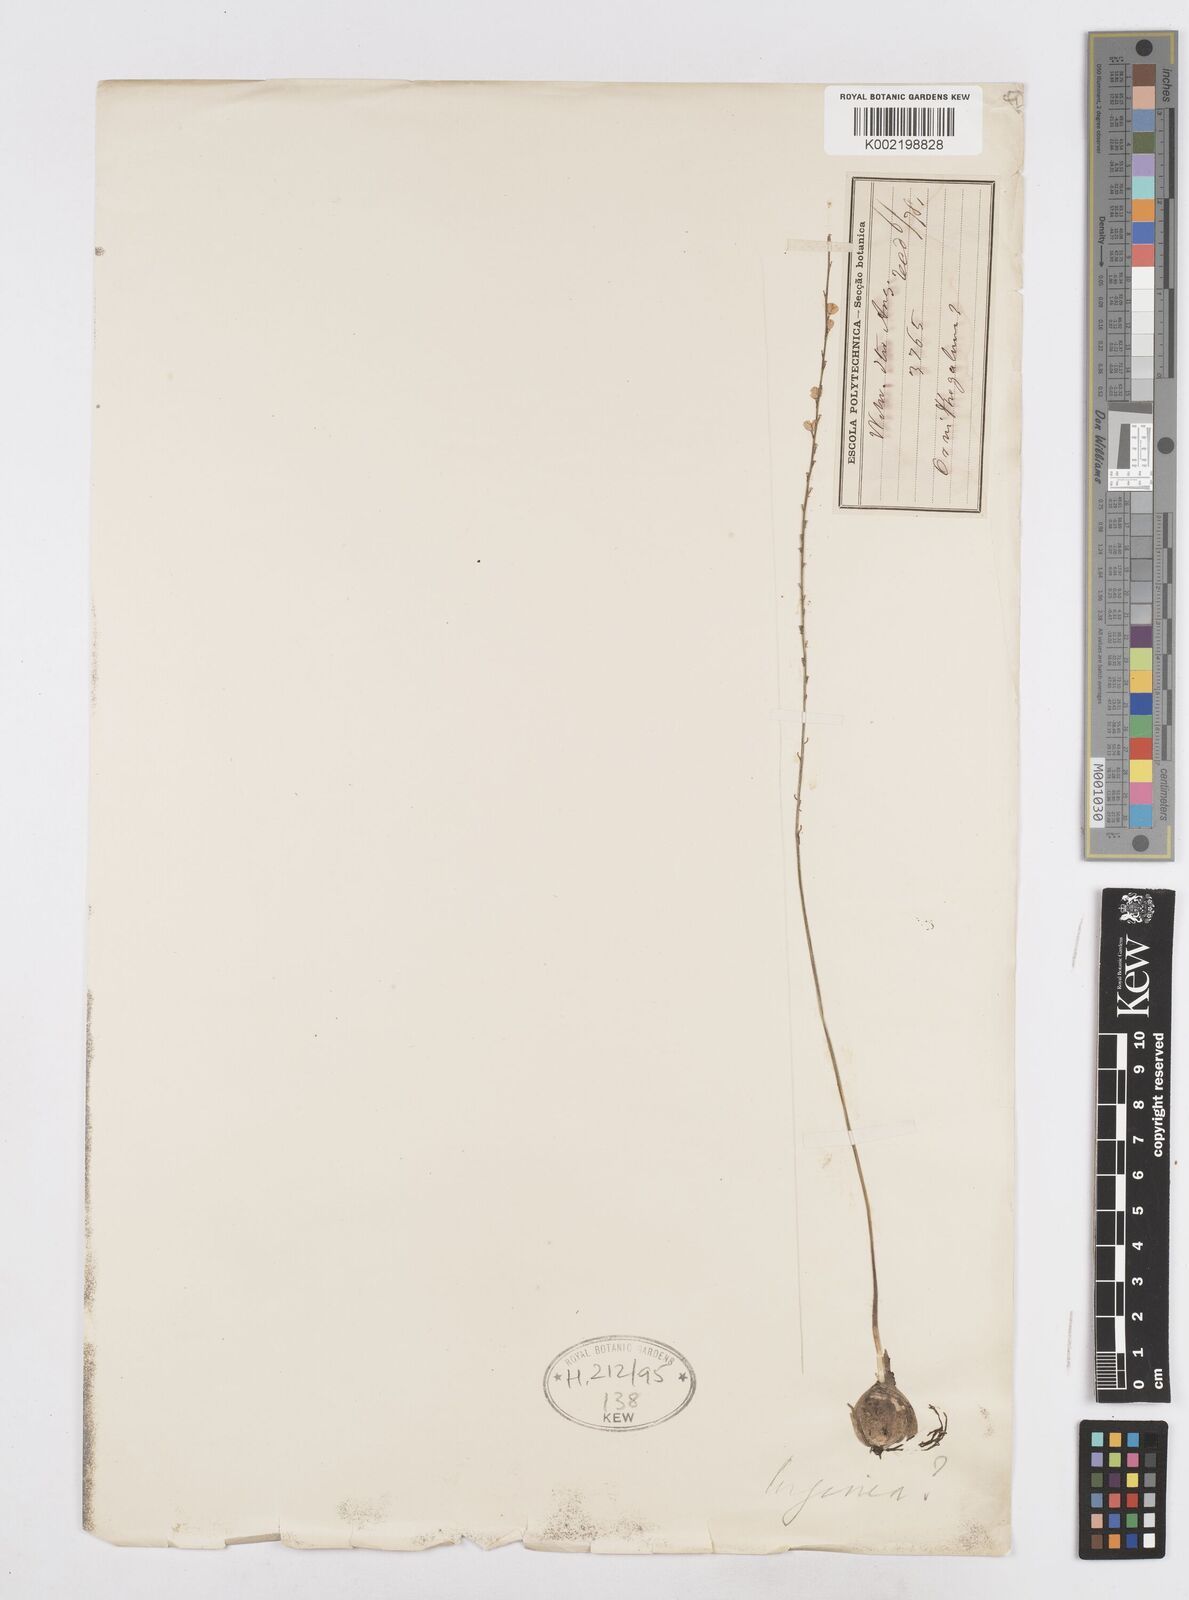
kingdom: Plantae
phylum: Tracheophyta
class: Liliopsida
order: Asparagales
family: Asparagaceae
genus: Drimia
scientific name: Drimia
